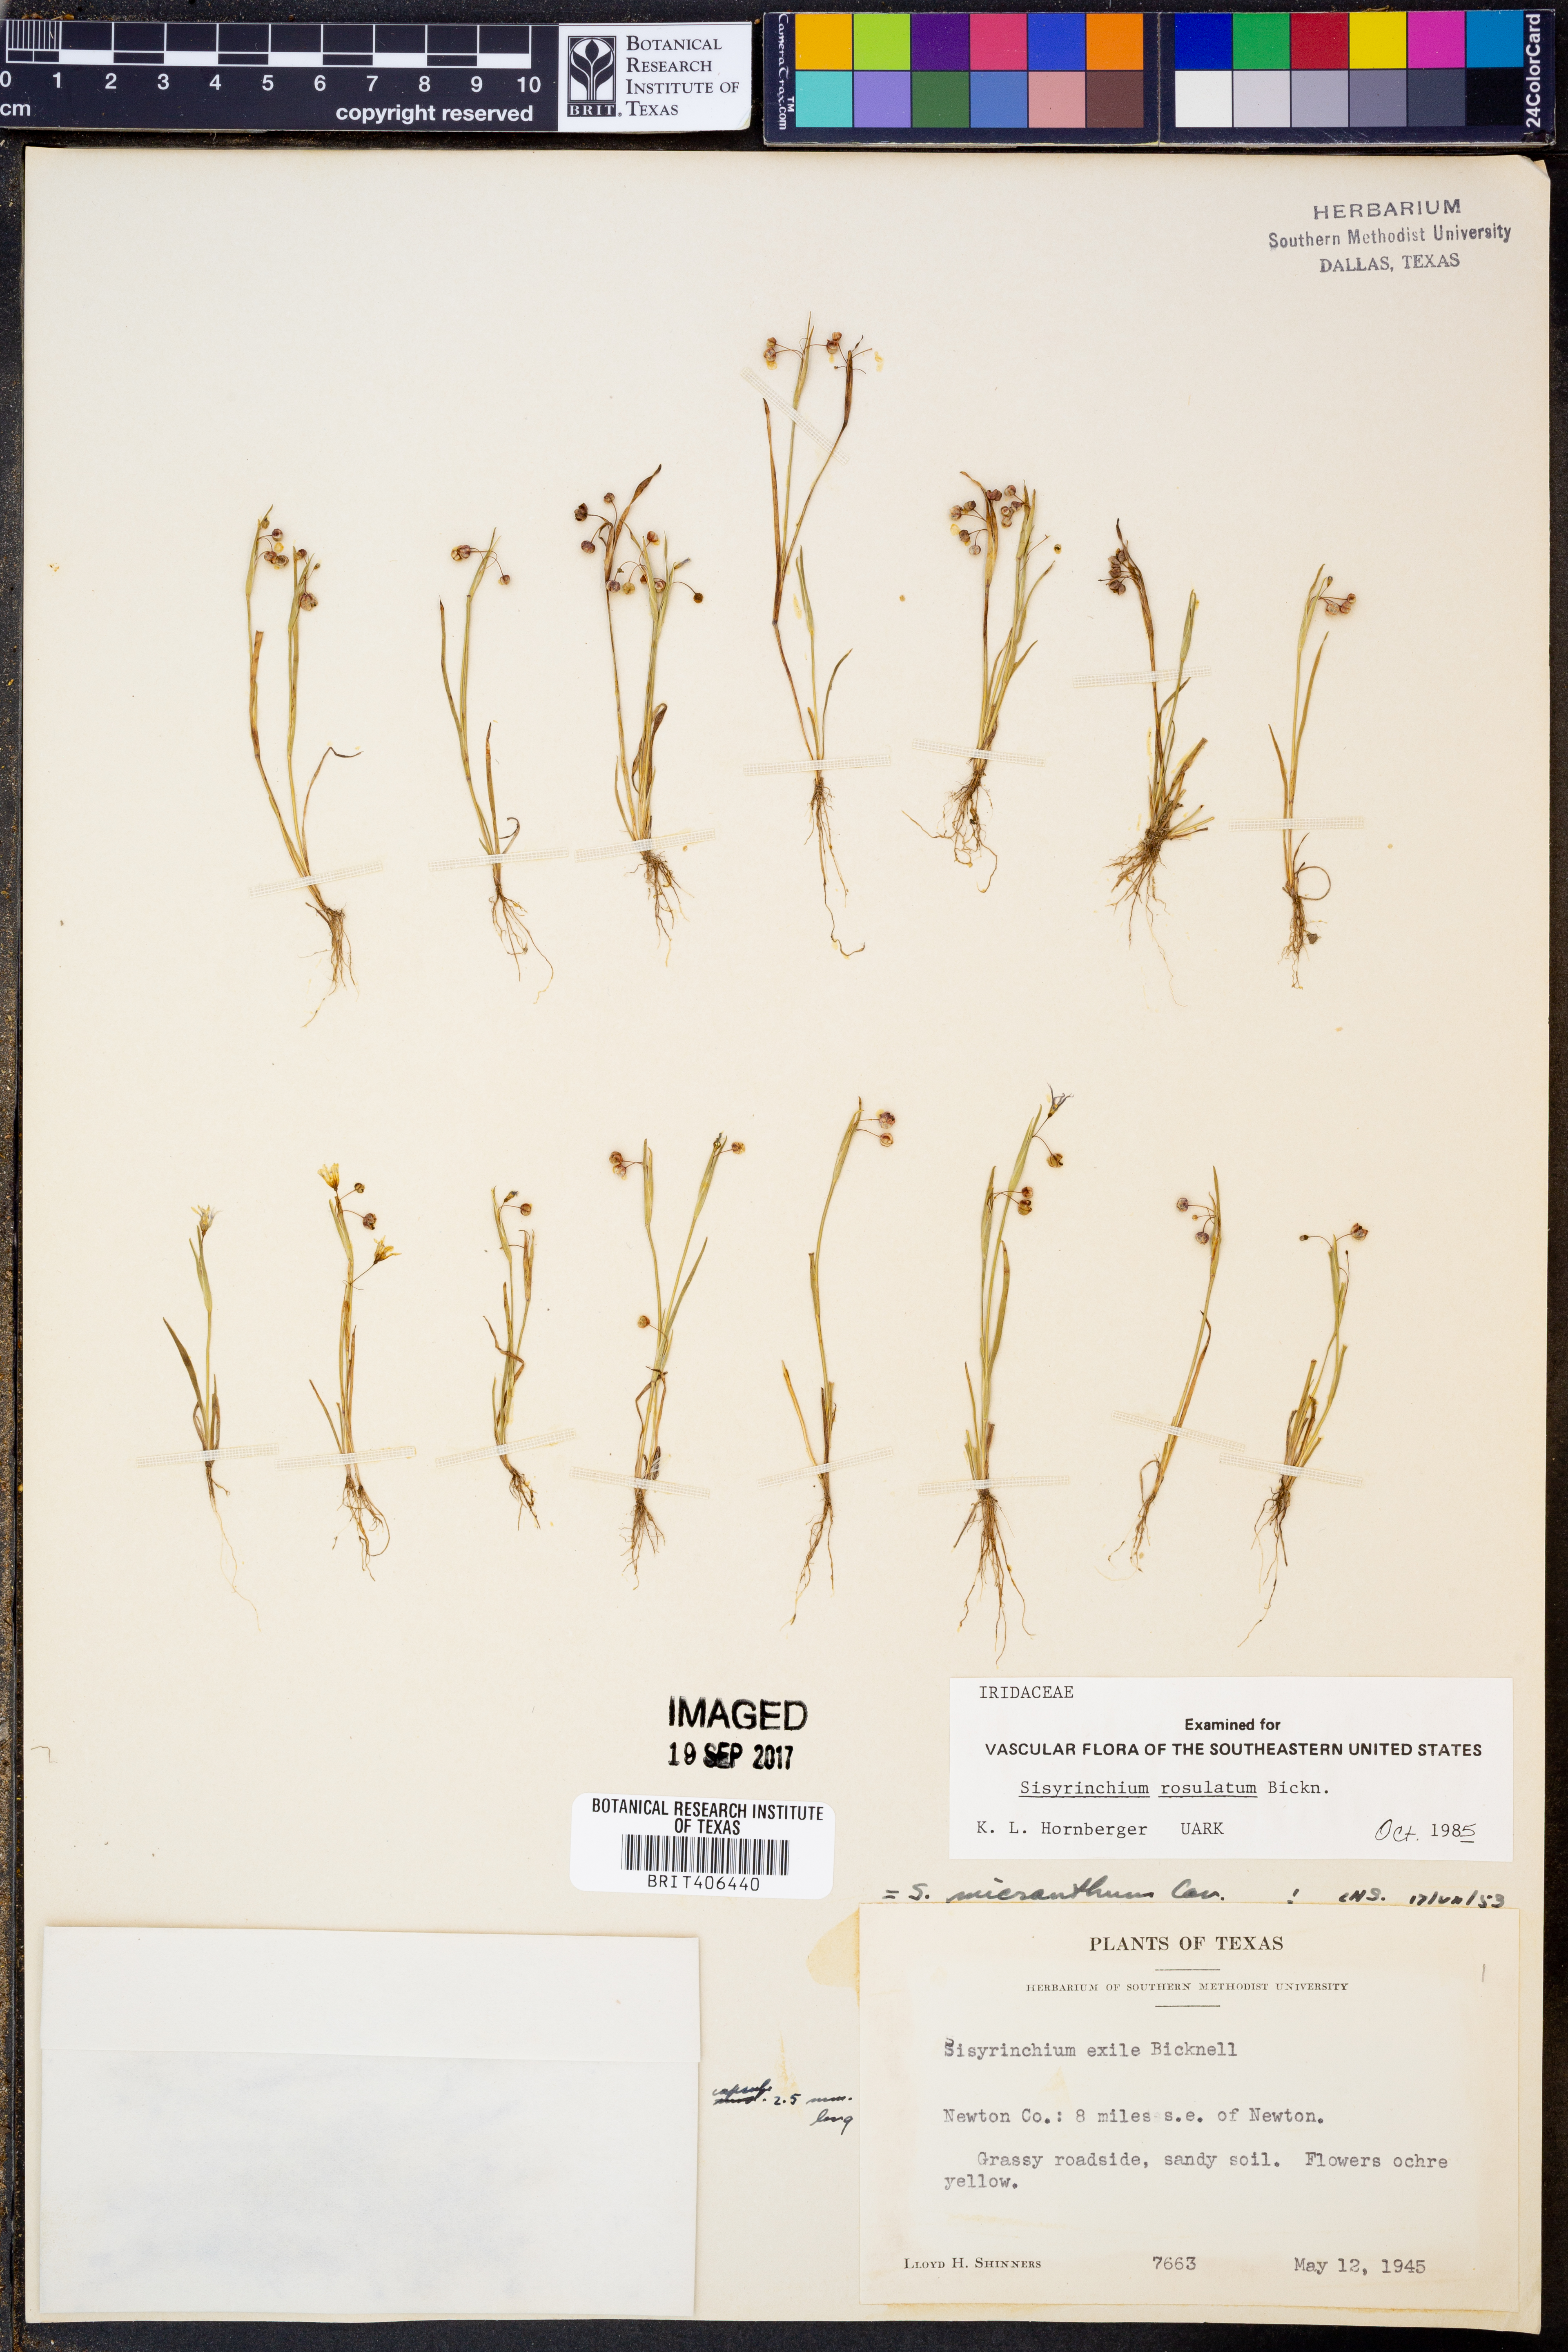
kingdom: Plantae
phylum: Tracheophyta
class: Liliopsida
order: Asparagales
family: Iridaceae
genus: Sisyrinchium
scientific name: Sisyrinchium rosulatum
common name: Annual blue-eyed grass
